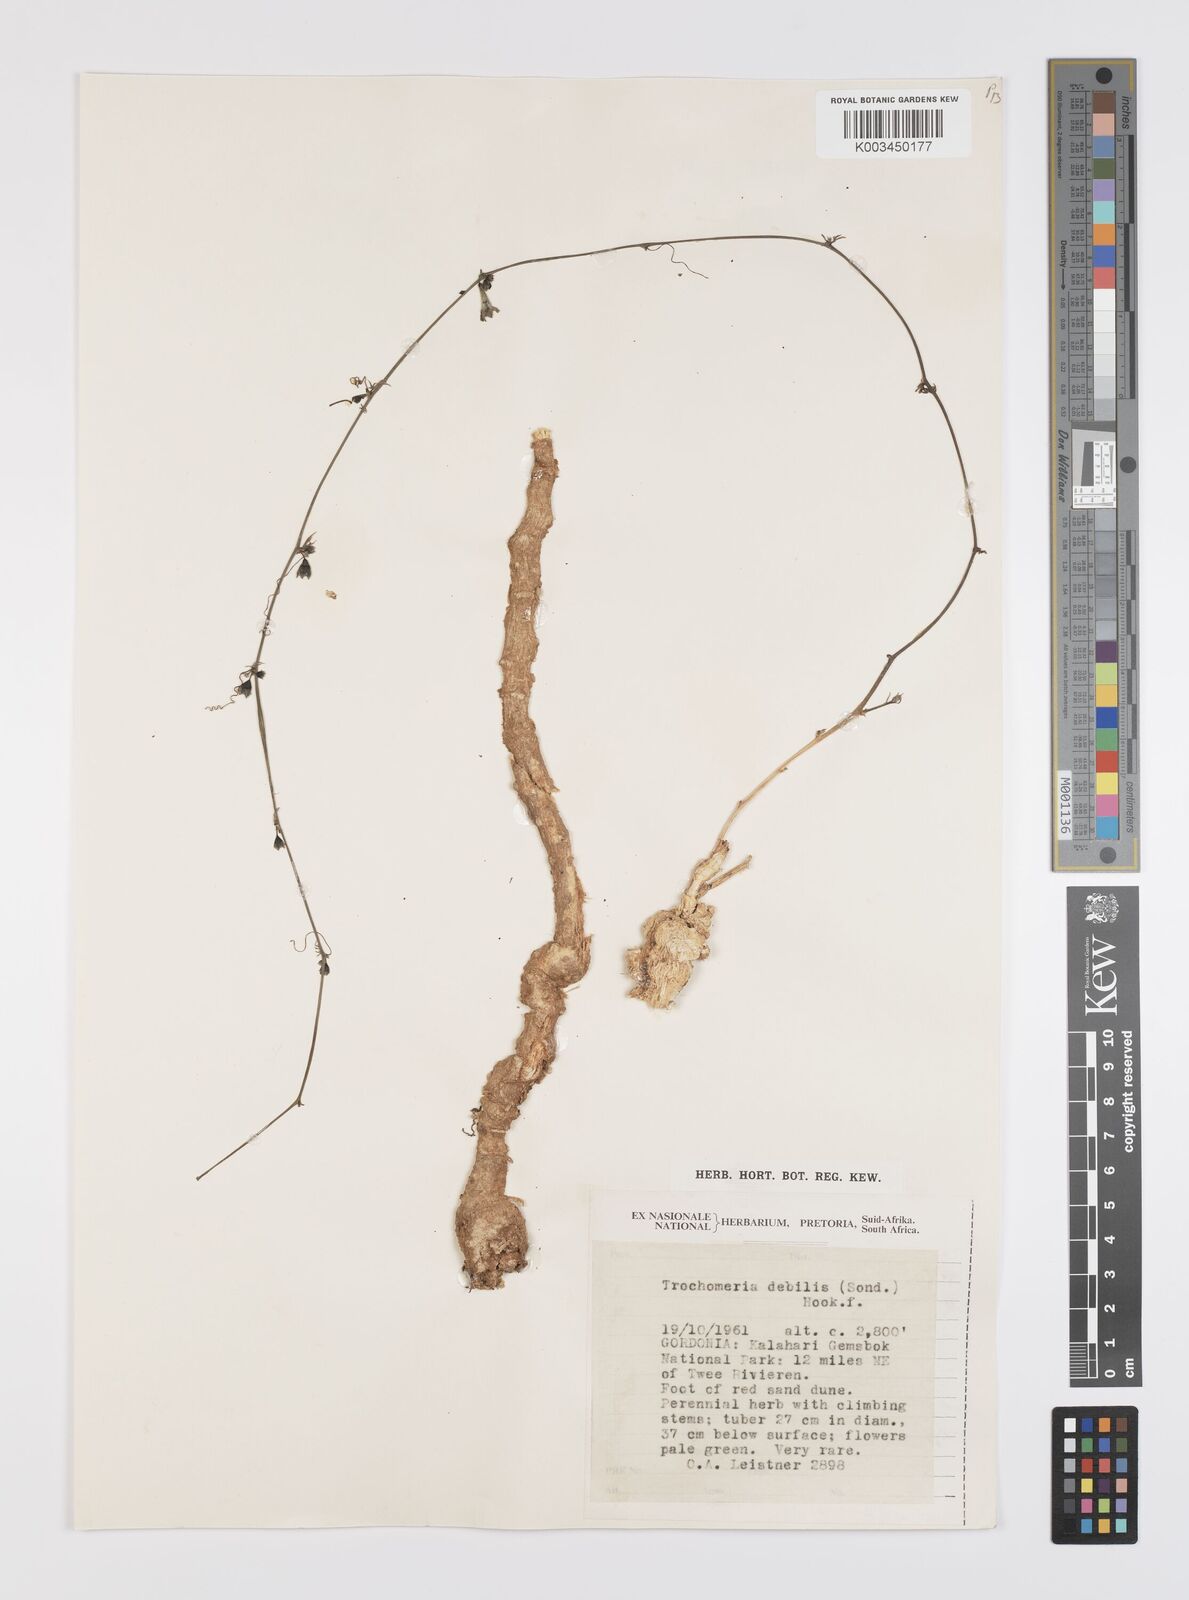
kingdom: Plantae
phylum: Tracheophyta
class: Magnoliopsida
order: Cucurbitales
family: Cucurbitaceae
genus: Trochomeria
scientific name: Trochomeria debilis
